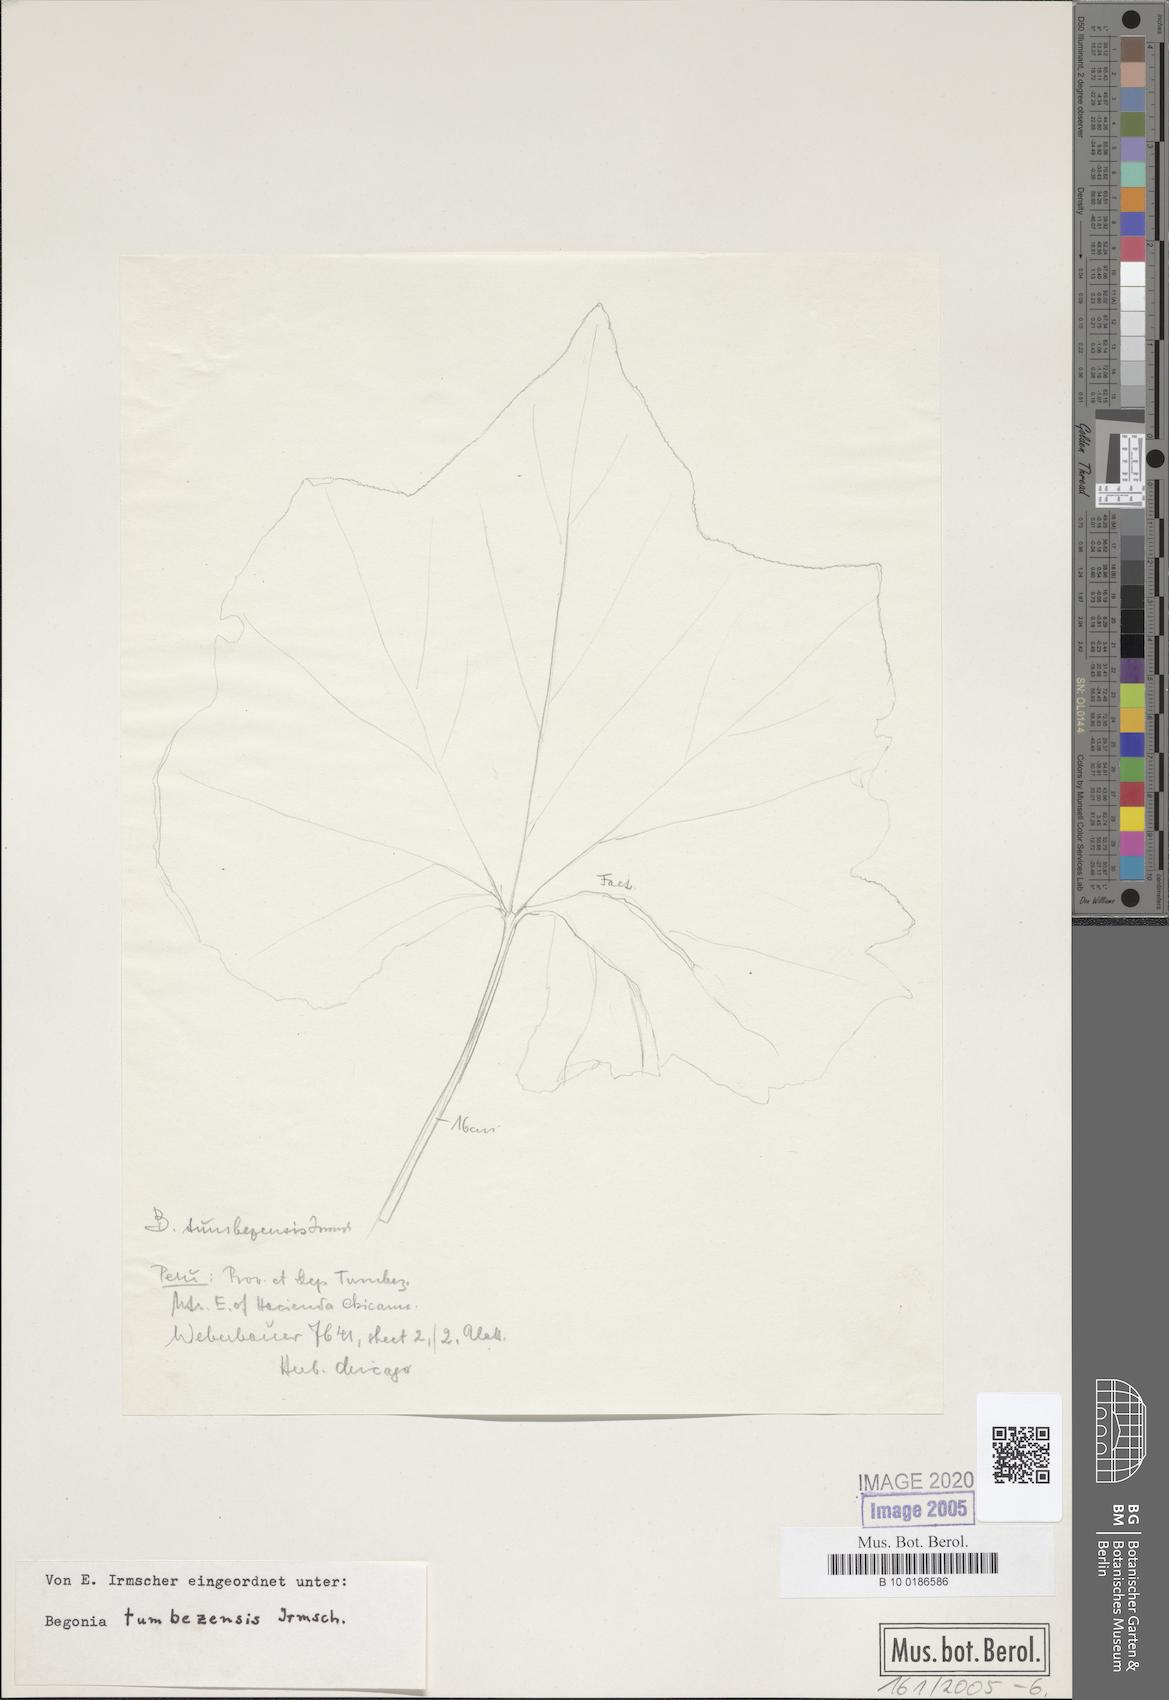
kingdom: Plantae
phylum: Tracheophyta
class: Magnoliopsida
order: Cucurbitales
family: Begoniaceae
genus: Begonia
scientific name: Begonia tumbezensis
